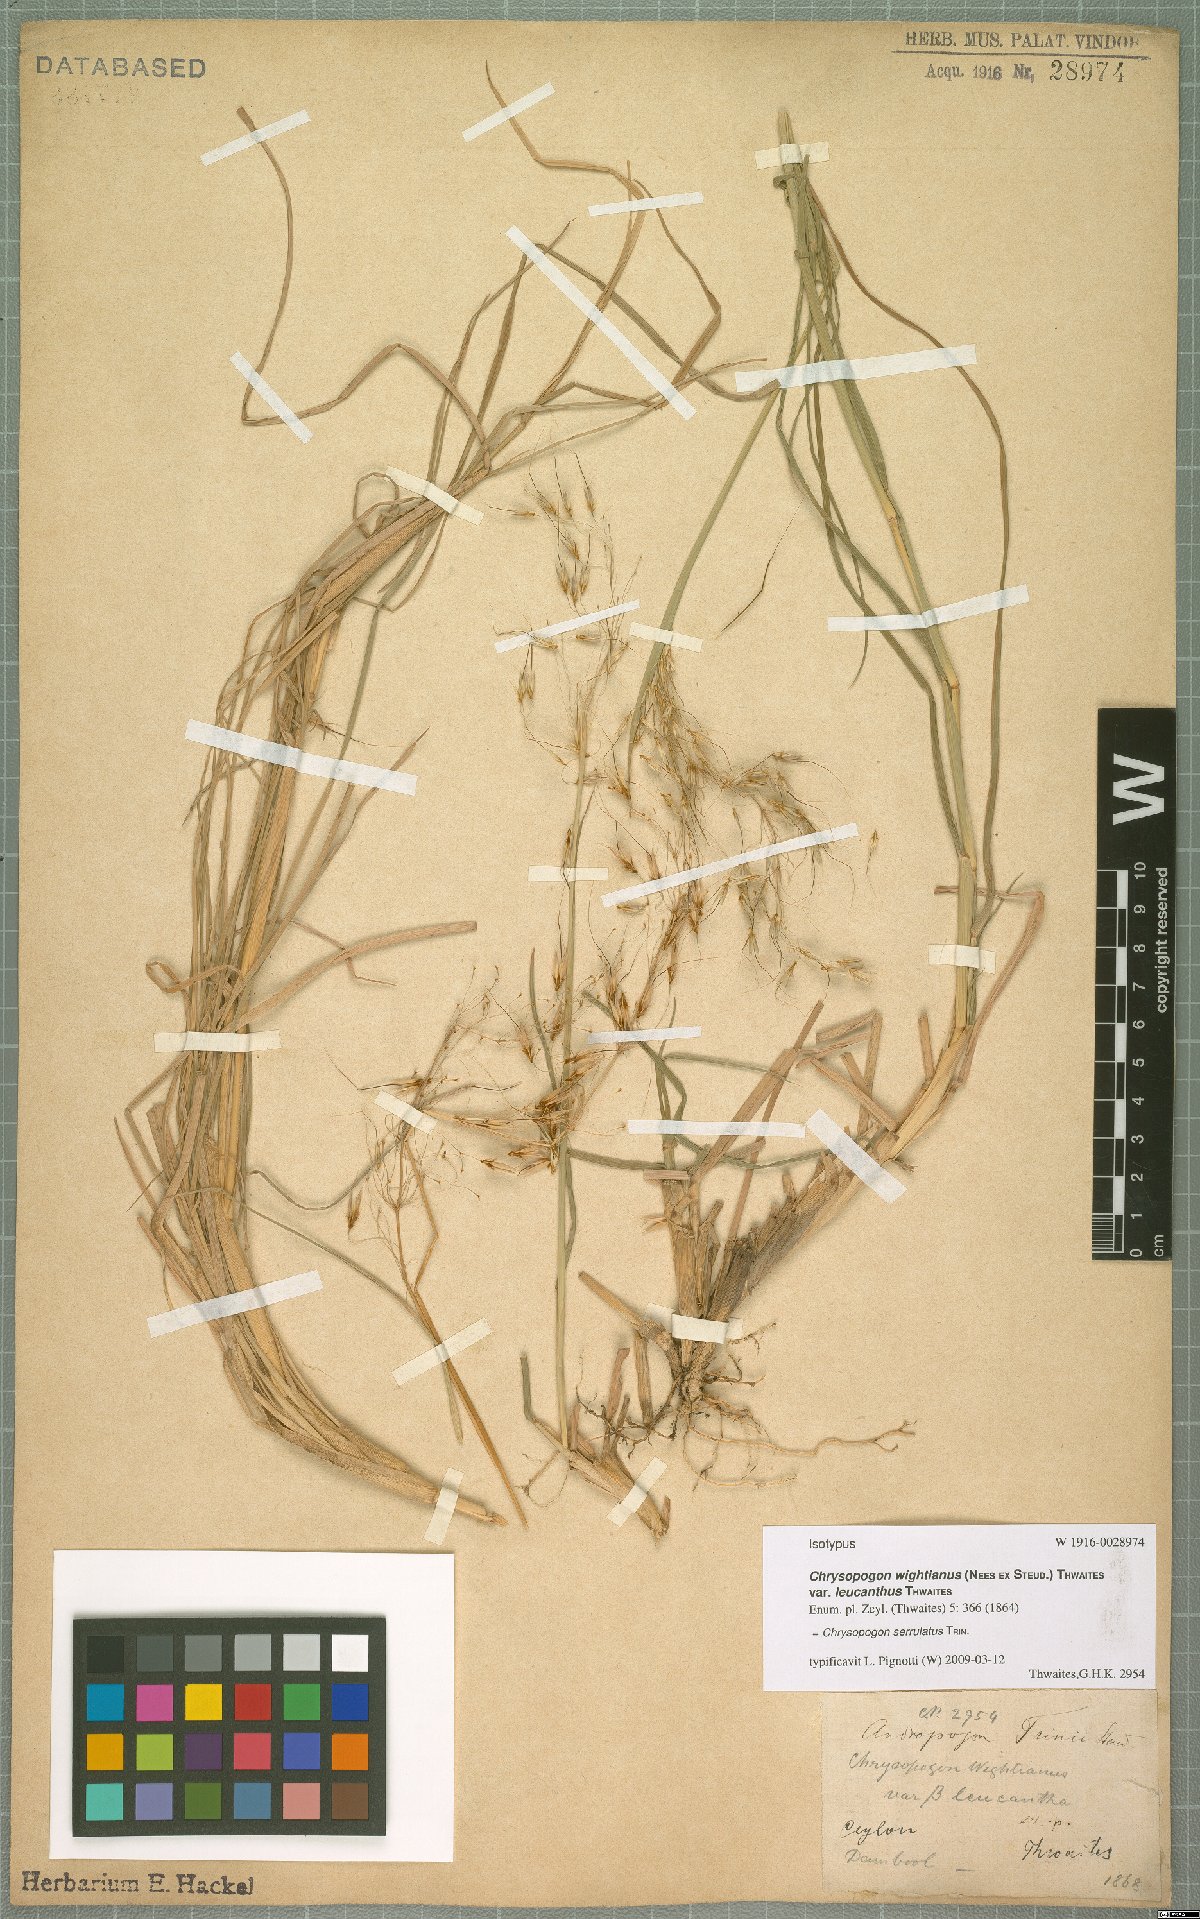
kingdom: Plantae
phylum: Tracheophyta
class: Liliopsida
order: Poales
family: Poaceae
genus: Chrysopogon
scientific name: Chrysopogon serrulatus
